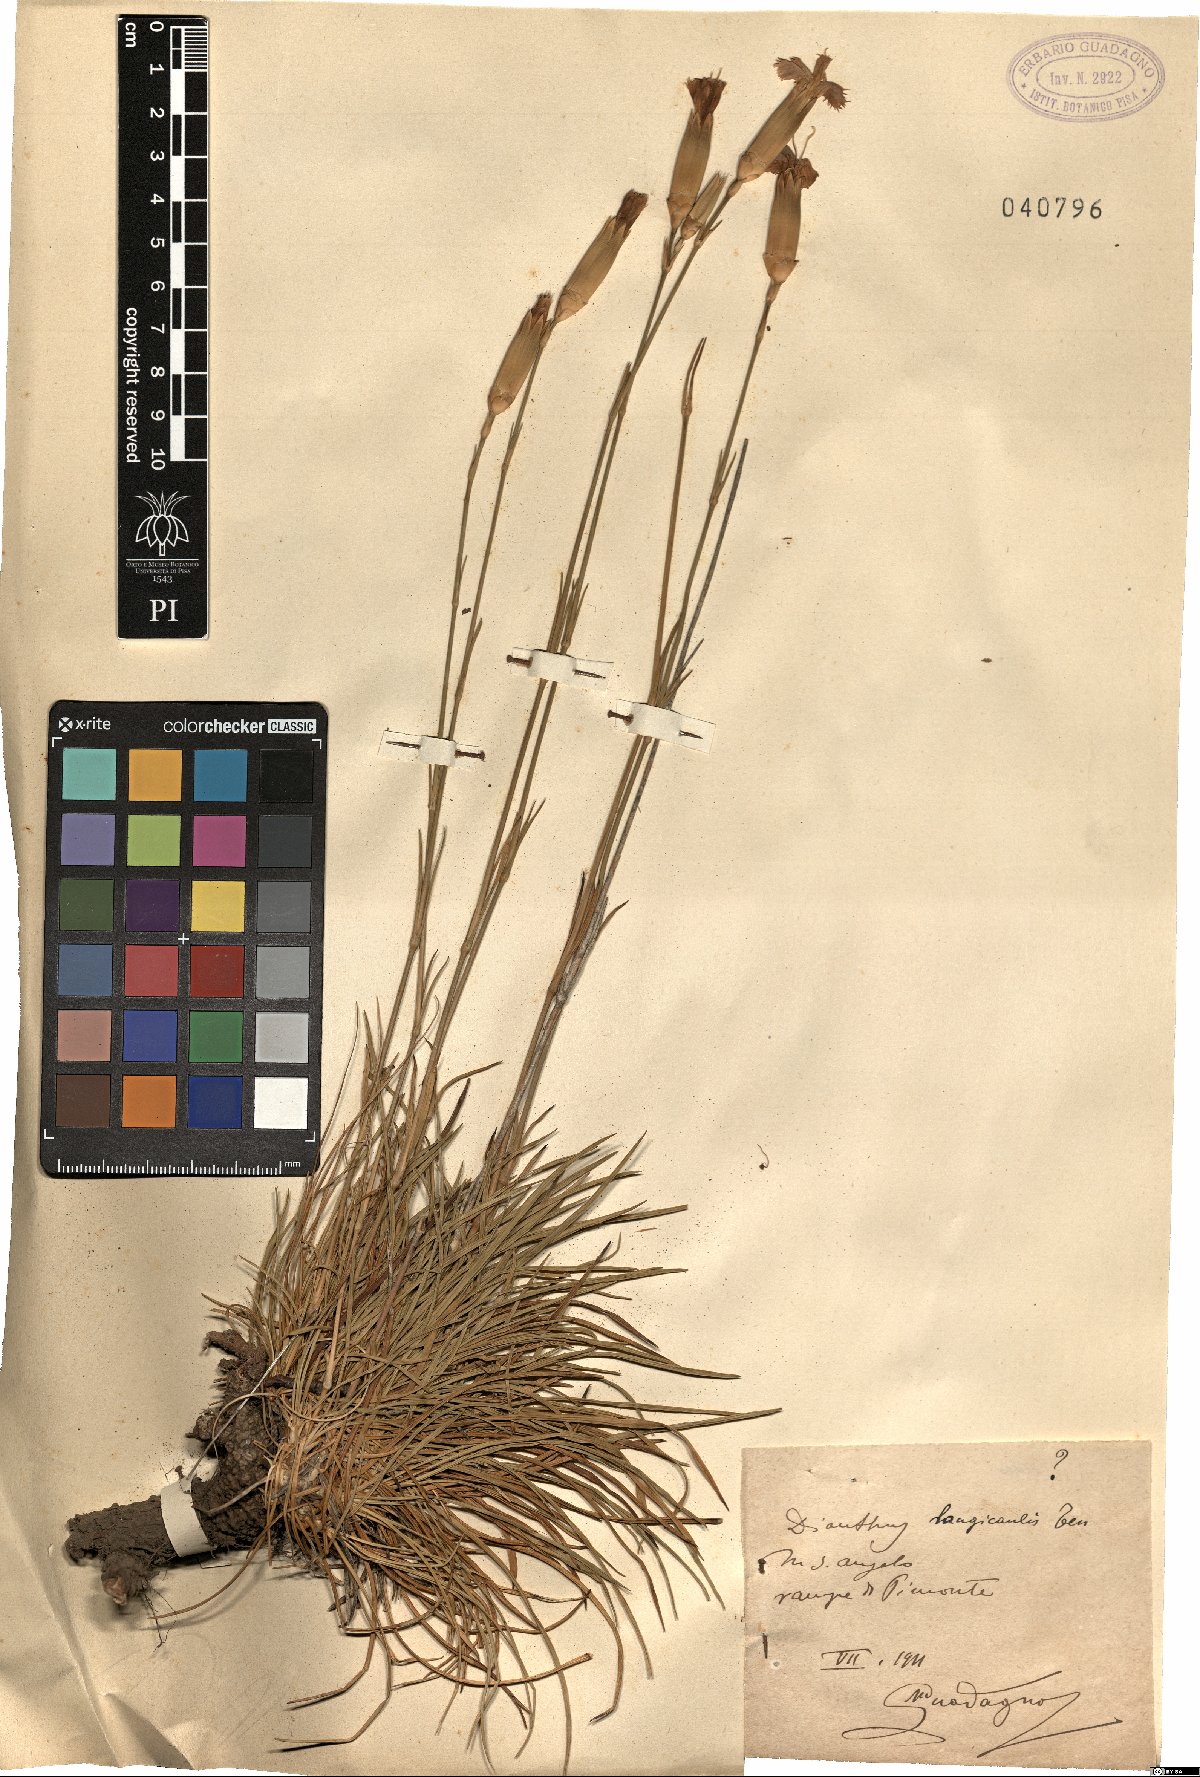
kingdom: Plantae
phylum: Tracheophyta
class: Magnoliopsida
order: Caryophyllales
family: Caryophyllaceae
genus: Dianthus
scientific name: Dianthus virgineus
